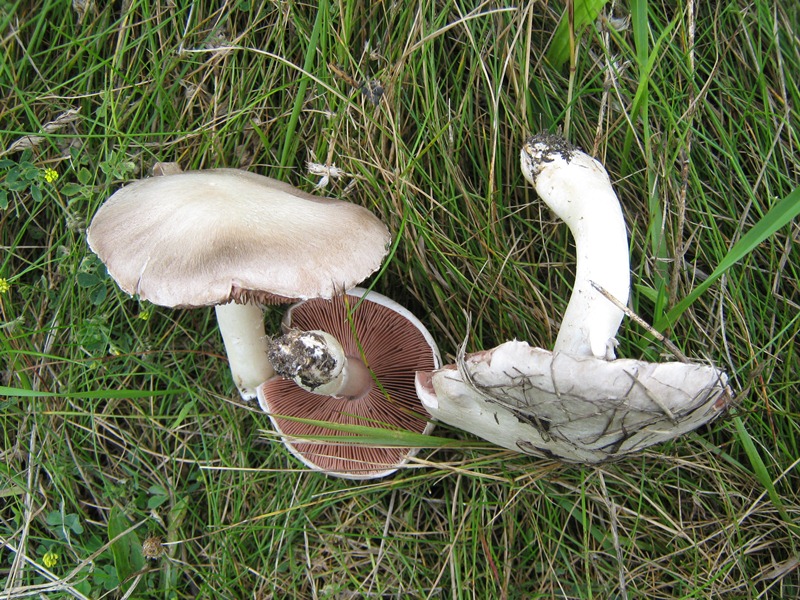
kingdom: Fungi
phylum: Basidiomycota
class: Agaricomycetes
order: Agaricales
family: Agaricaceae
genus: Agaricus
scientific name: Agaricus campestris
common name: mark-champignon
